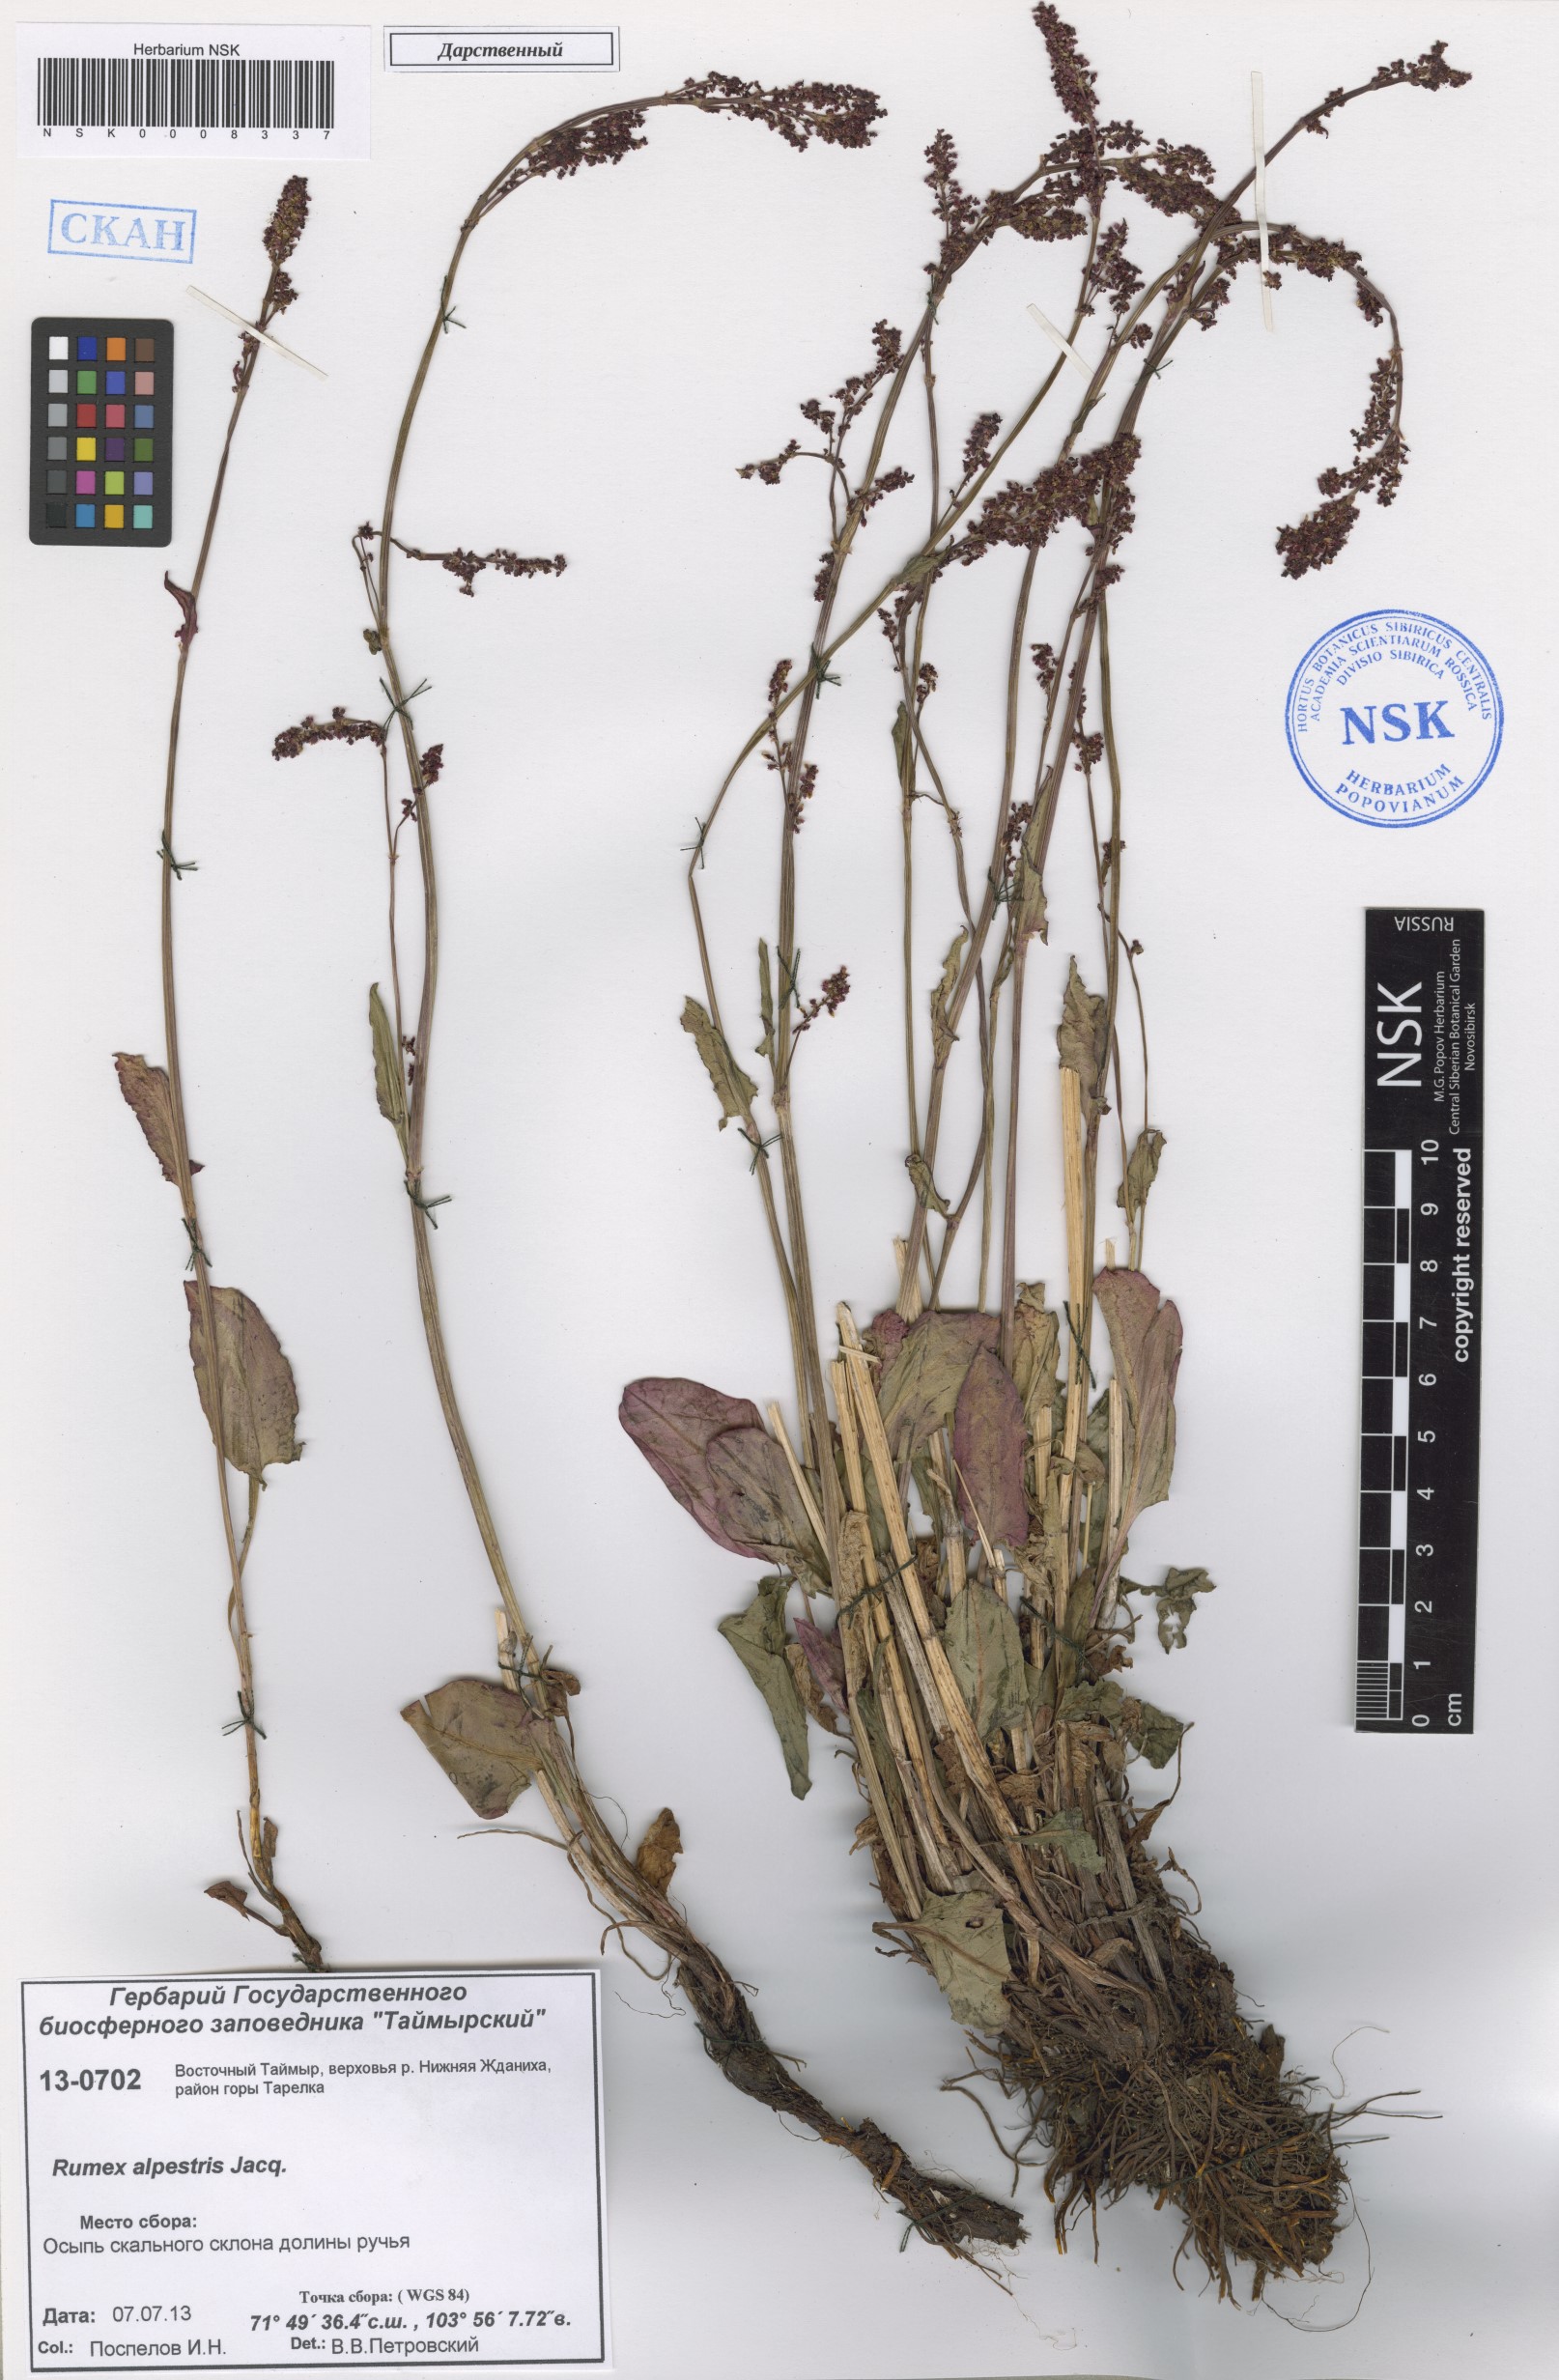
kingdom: Plantae
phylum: Tracheophyta
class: Magnoliopsida
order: Caryophyllales
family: Polygonaceae
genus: Rumex
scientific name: Rumex scutatus
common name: French sorrel
